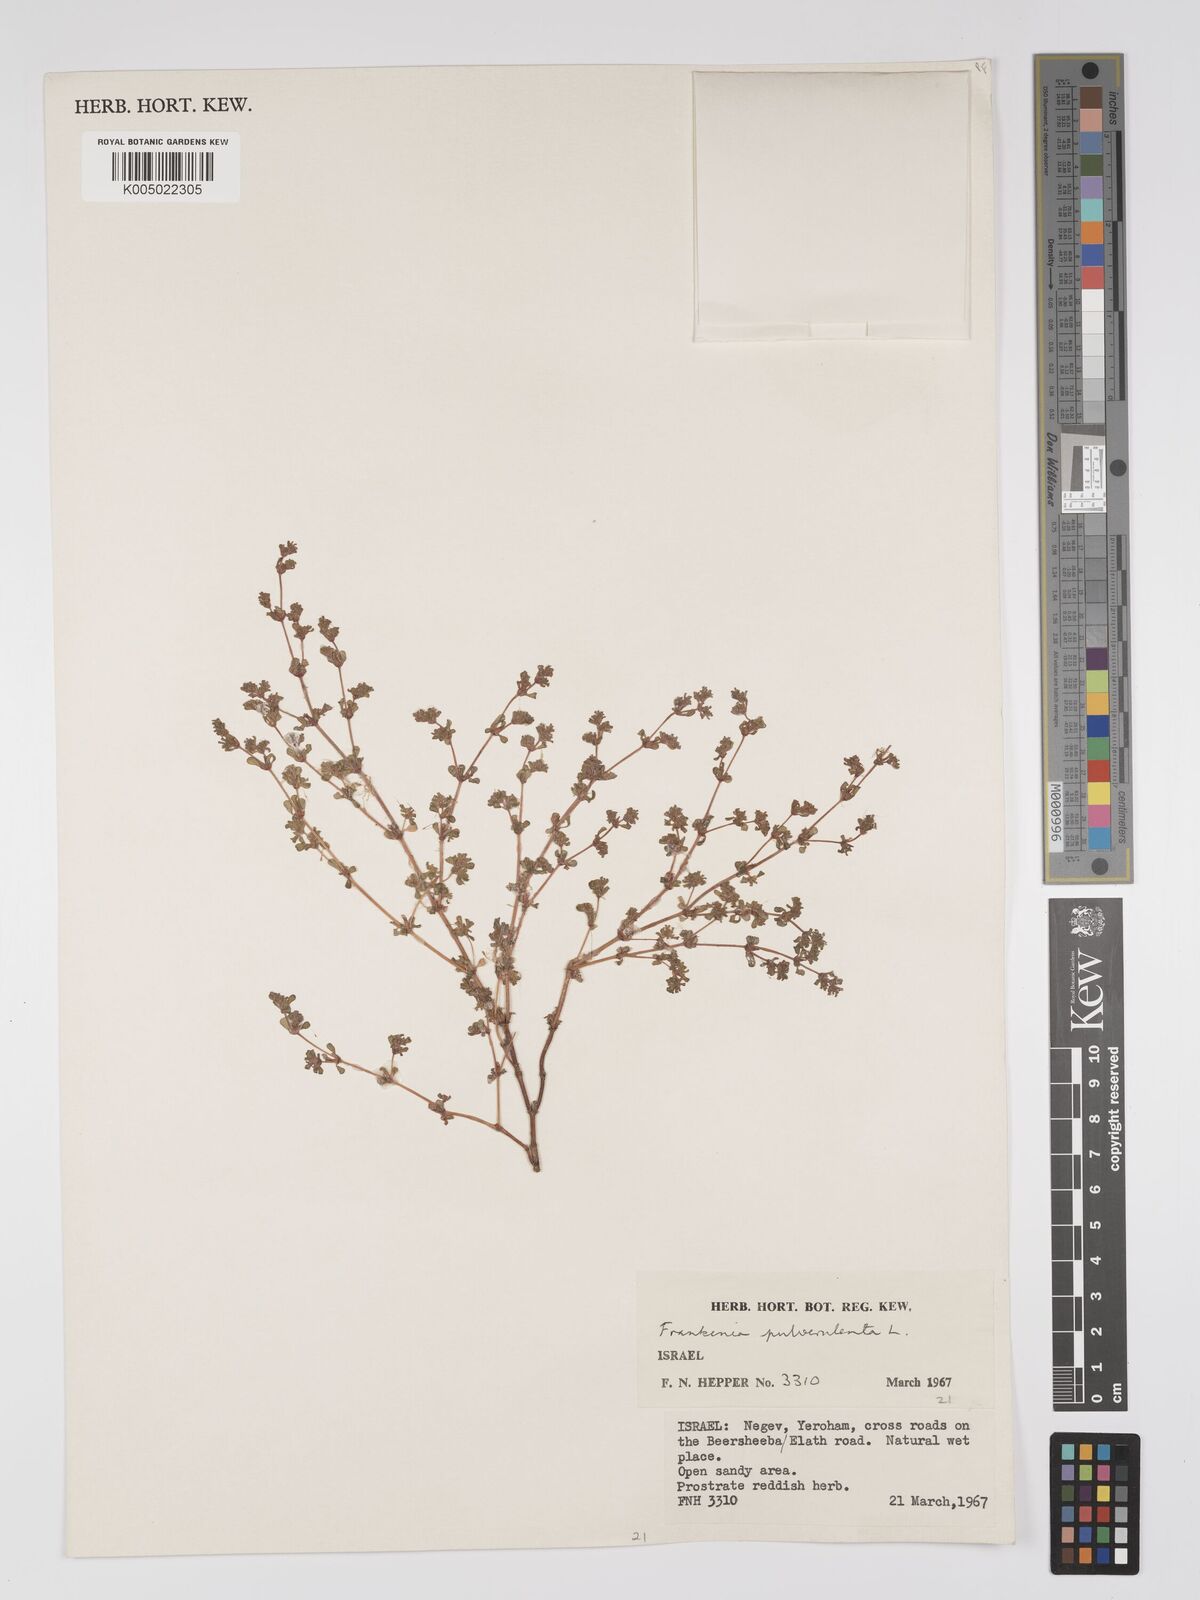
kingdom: Plantae
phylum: Tracheophyta
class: Magnoliopsida
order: Caryophyllales
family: Frankeniaceae
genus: Frankenia
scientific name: Frankenia pulverulenta
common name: European seaheath
